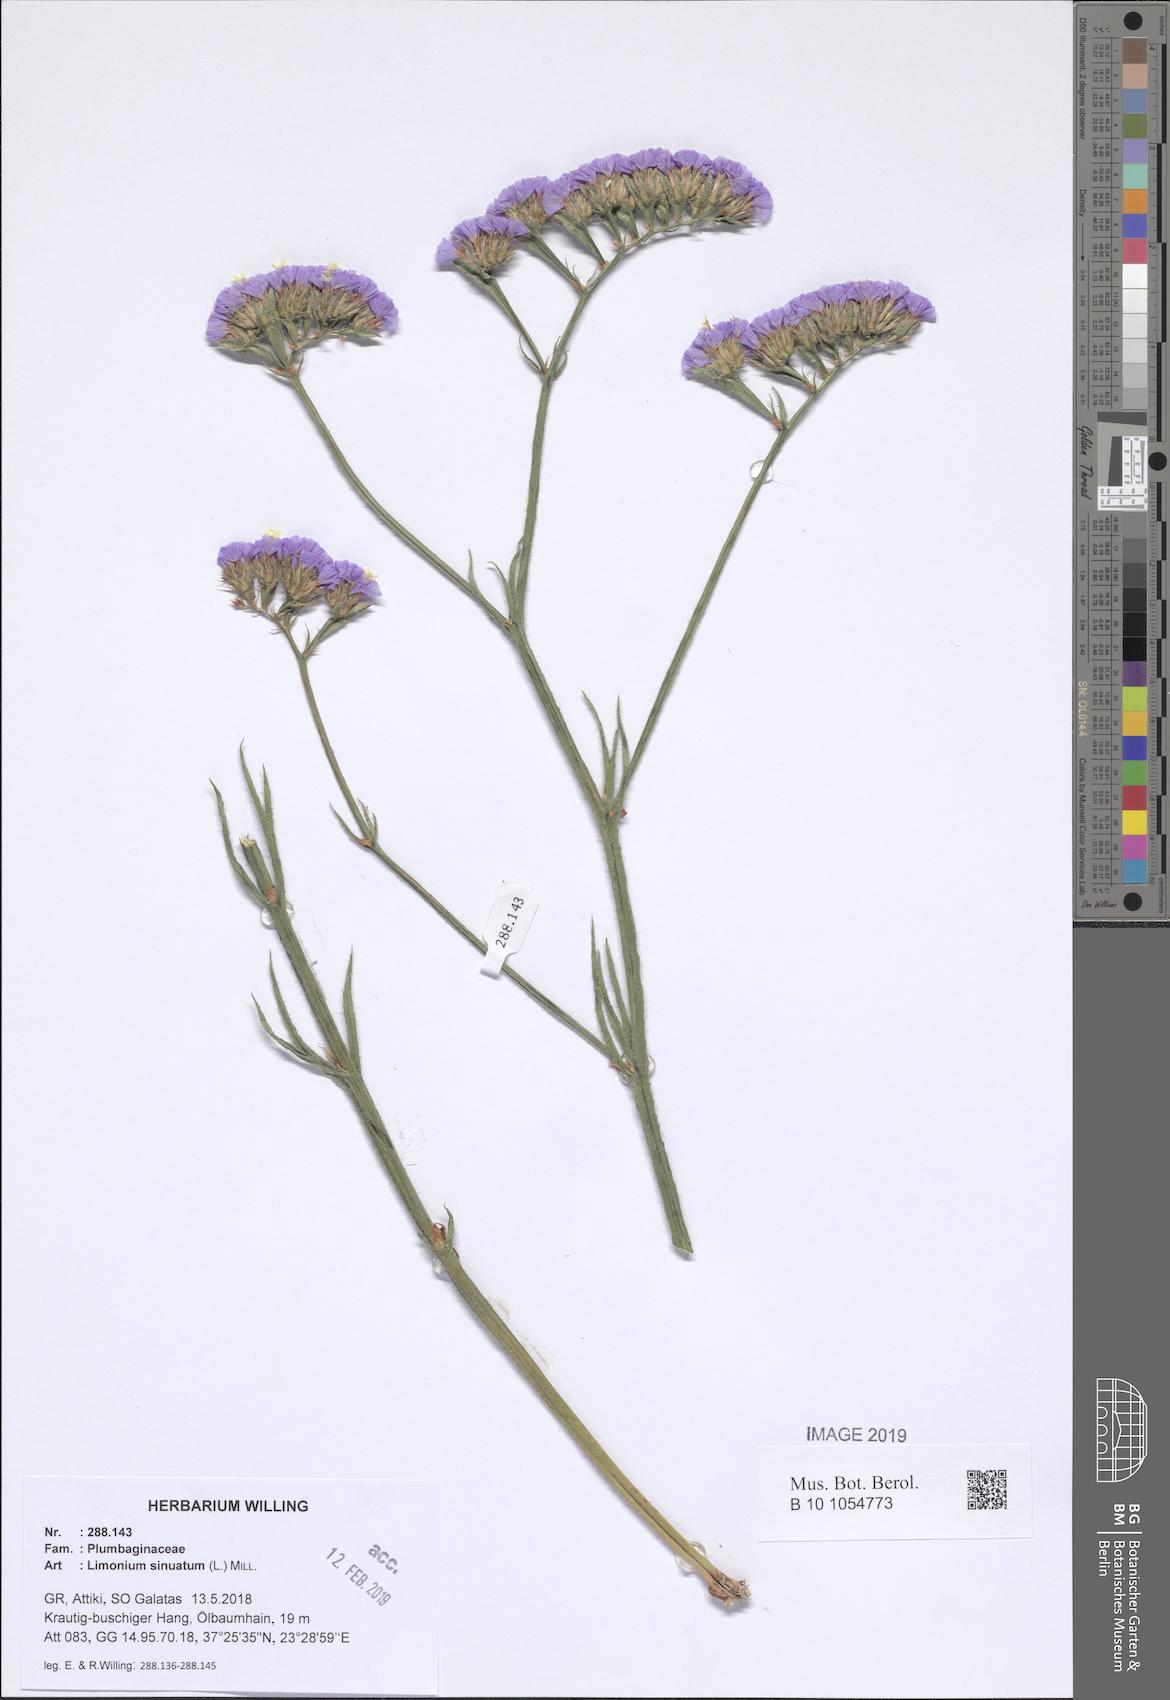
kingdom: Plantae
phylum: Tracheophyta
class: Magnoliopsida
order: Caryophyllales
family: Plumbaginaceae
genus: Limonium
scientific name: Limonium sinuatum
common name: Statice
